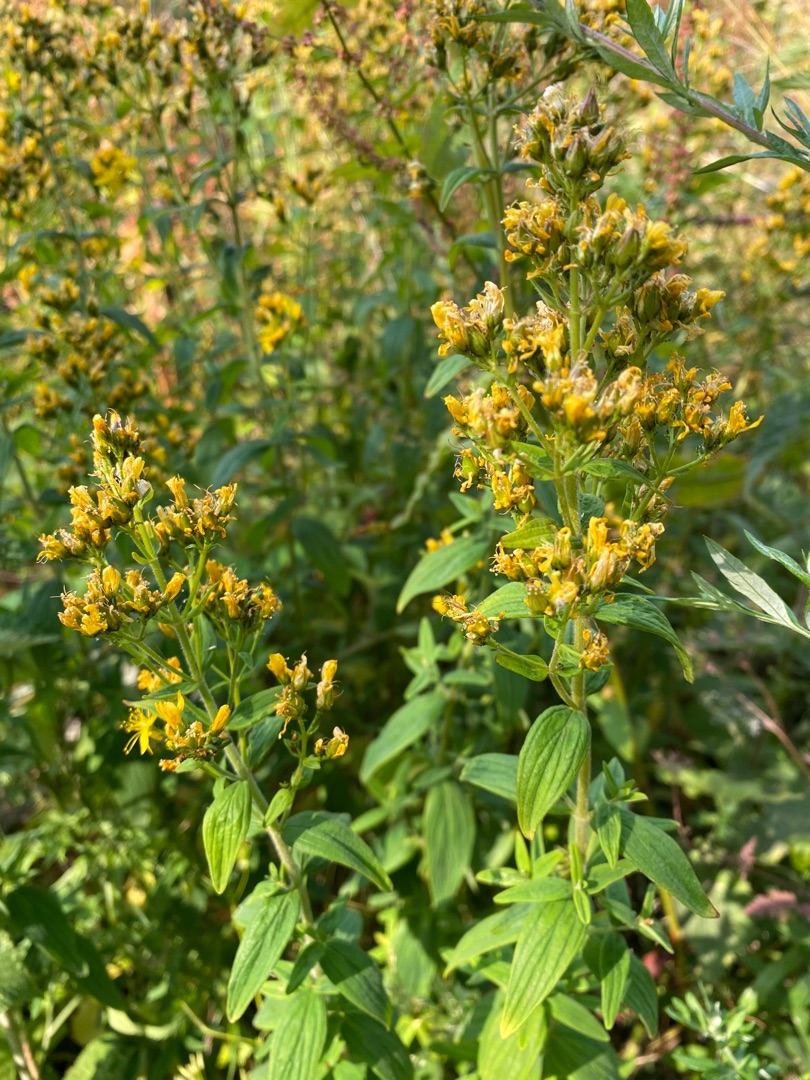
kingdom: Plantae
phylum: Tracheophyta
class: Magnoliopsida
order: Malpighiales
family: Hypericaceae
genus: Hypericum
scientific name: Hypericum hirsutum
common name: Lådden perikon
